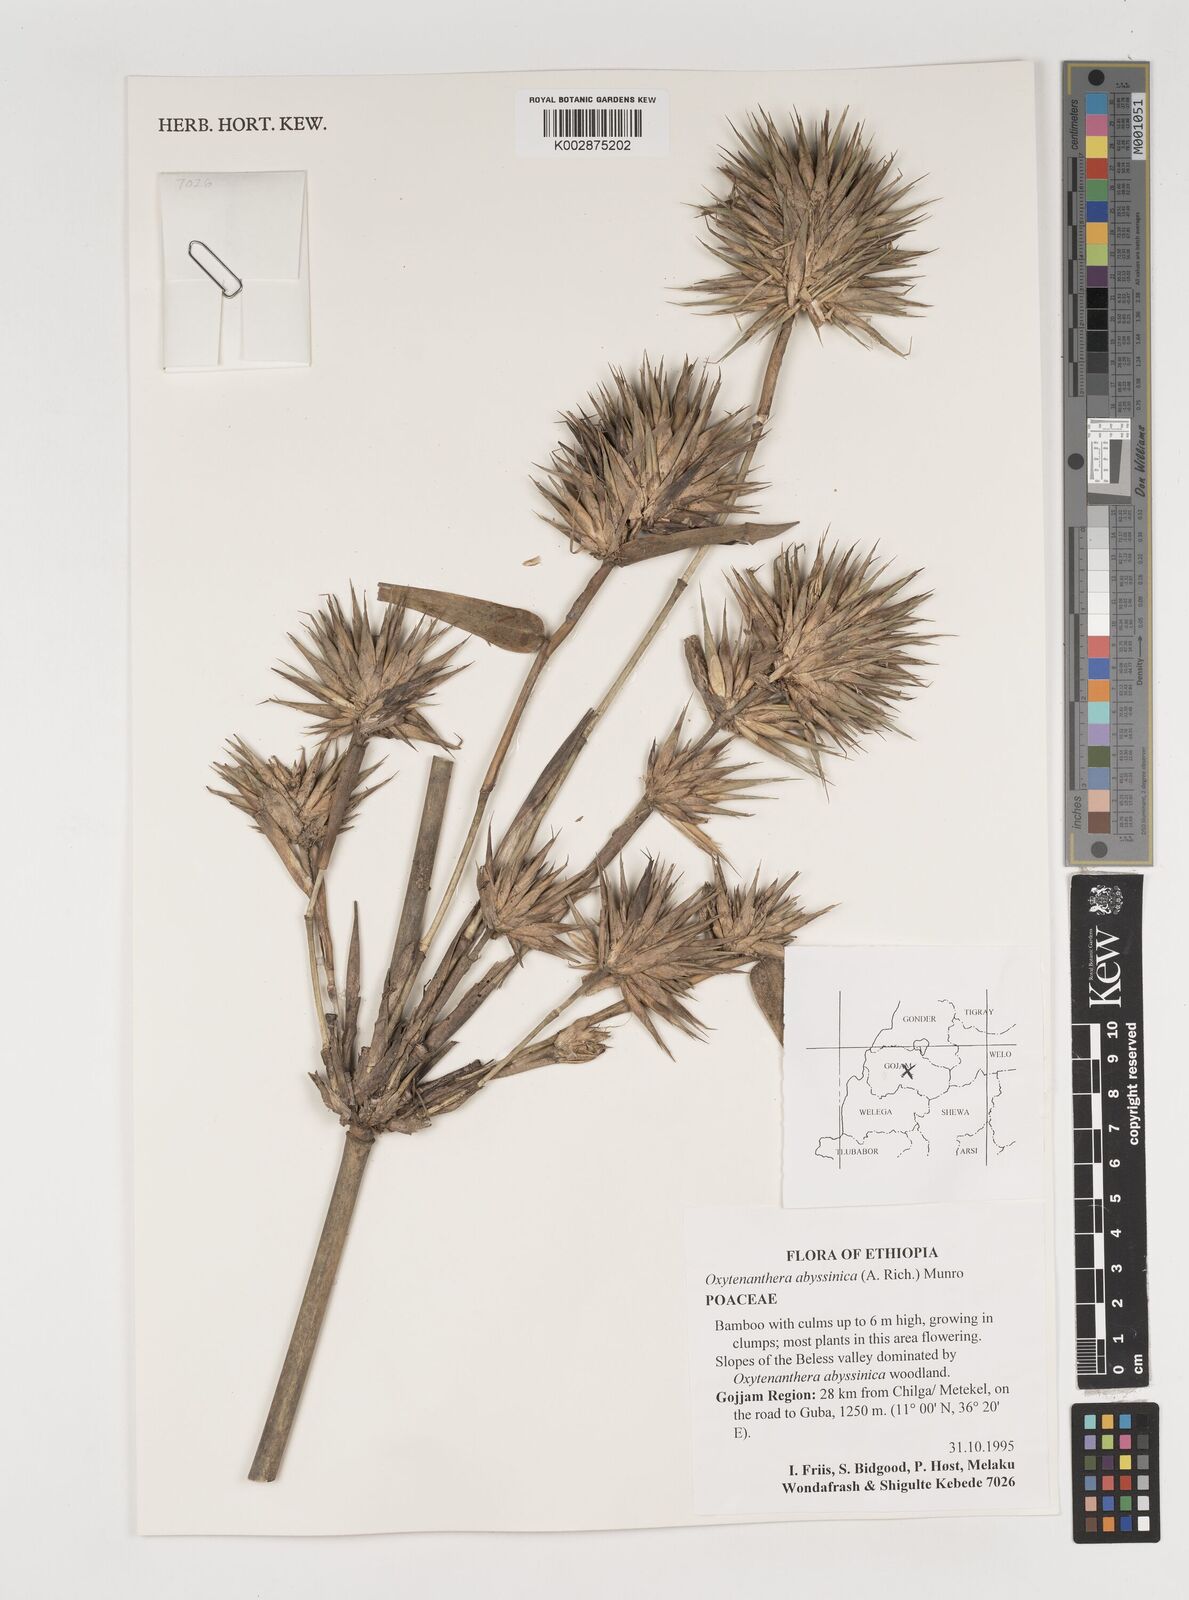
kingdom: Plantae
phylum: Tracheophyta
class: Liliopsida
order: Poales
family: Poaceae
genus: Oxytenanthera
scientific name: Oxytenanthera abyssinica
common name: Wine bamboo
